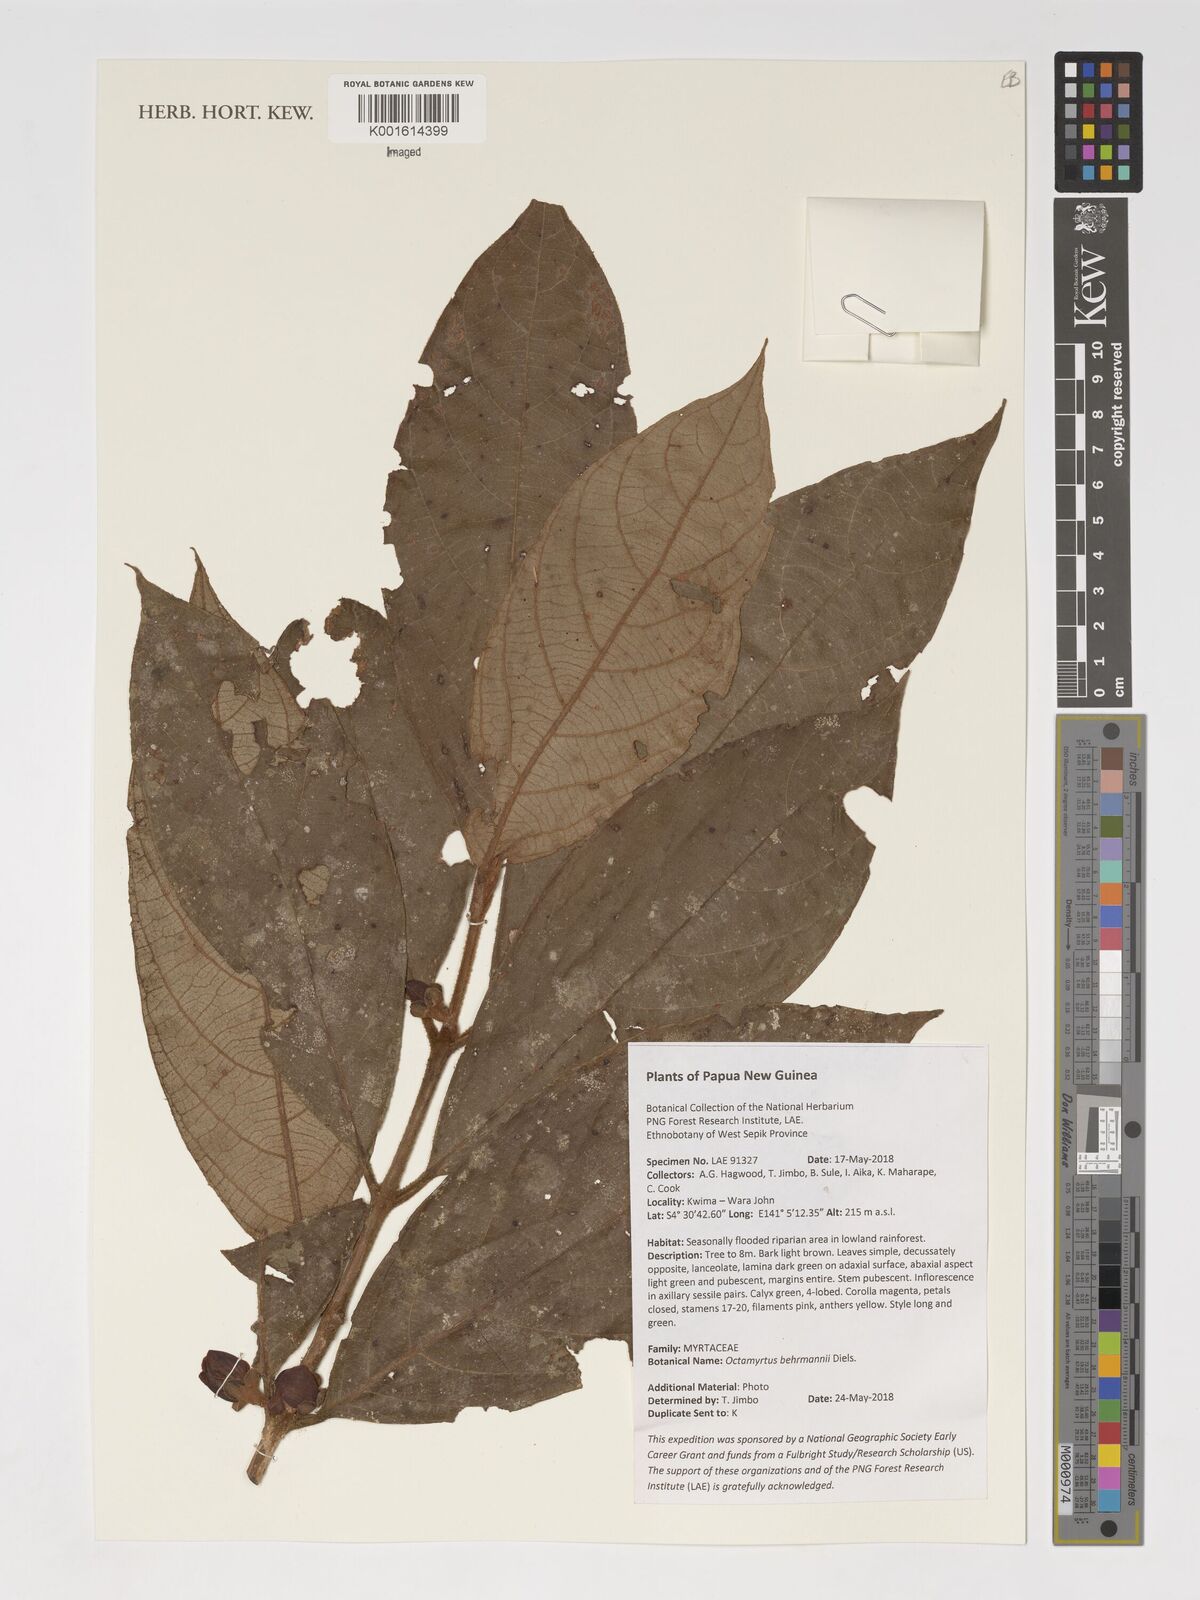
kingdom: Plantae
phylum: Tracheophyta
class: Magnoliopsida
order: Myrtales
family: Myrtaceae
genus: Octamyrtus
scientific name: Octamyrtus behrmannii
